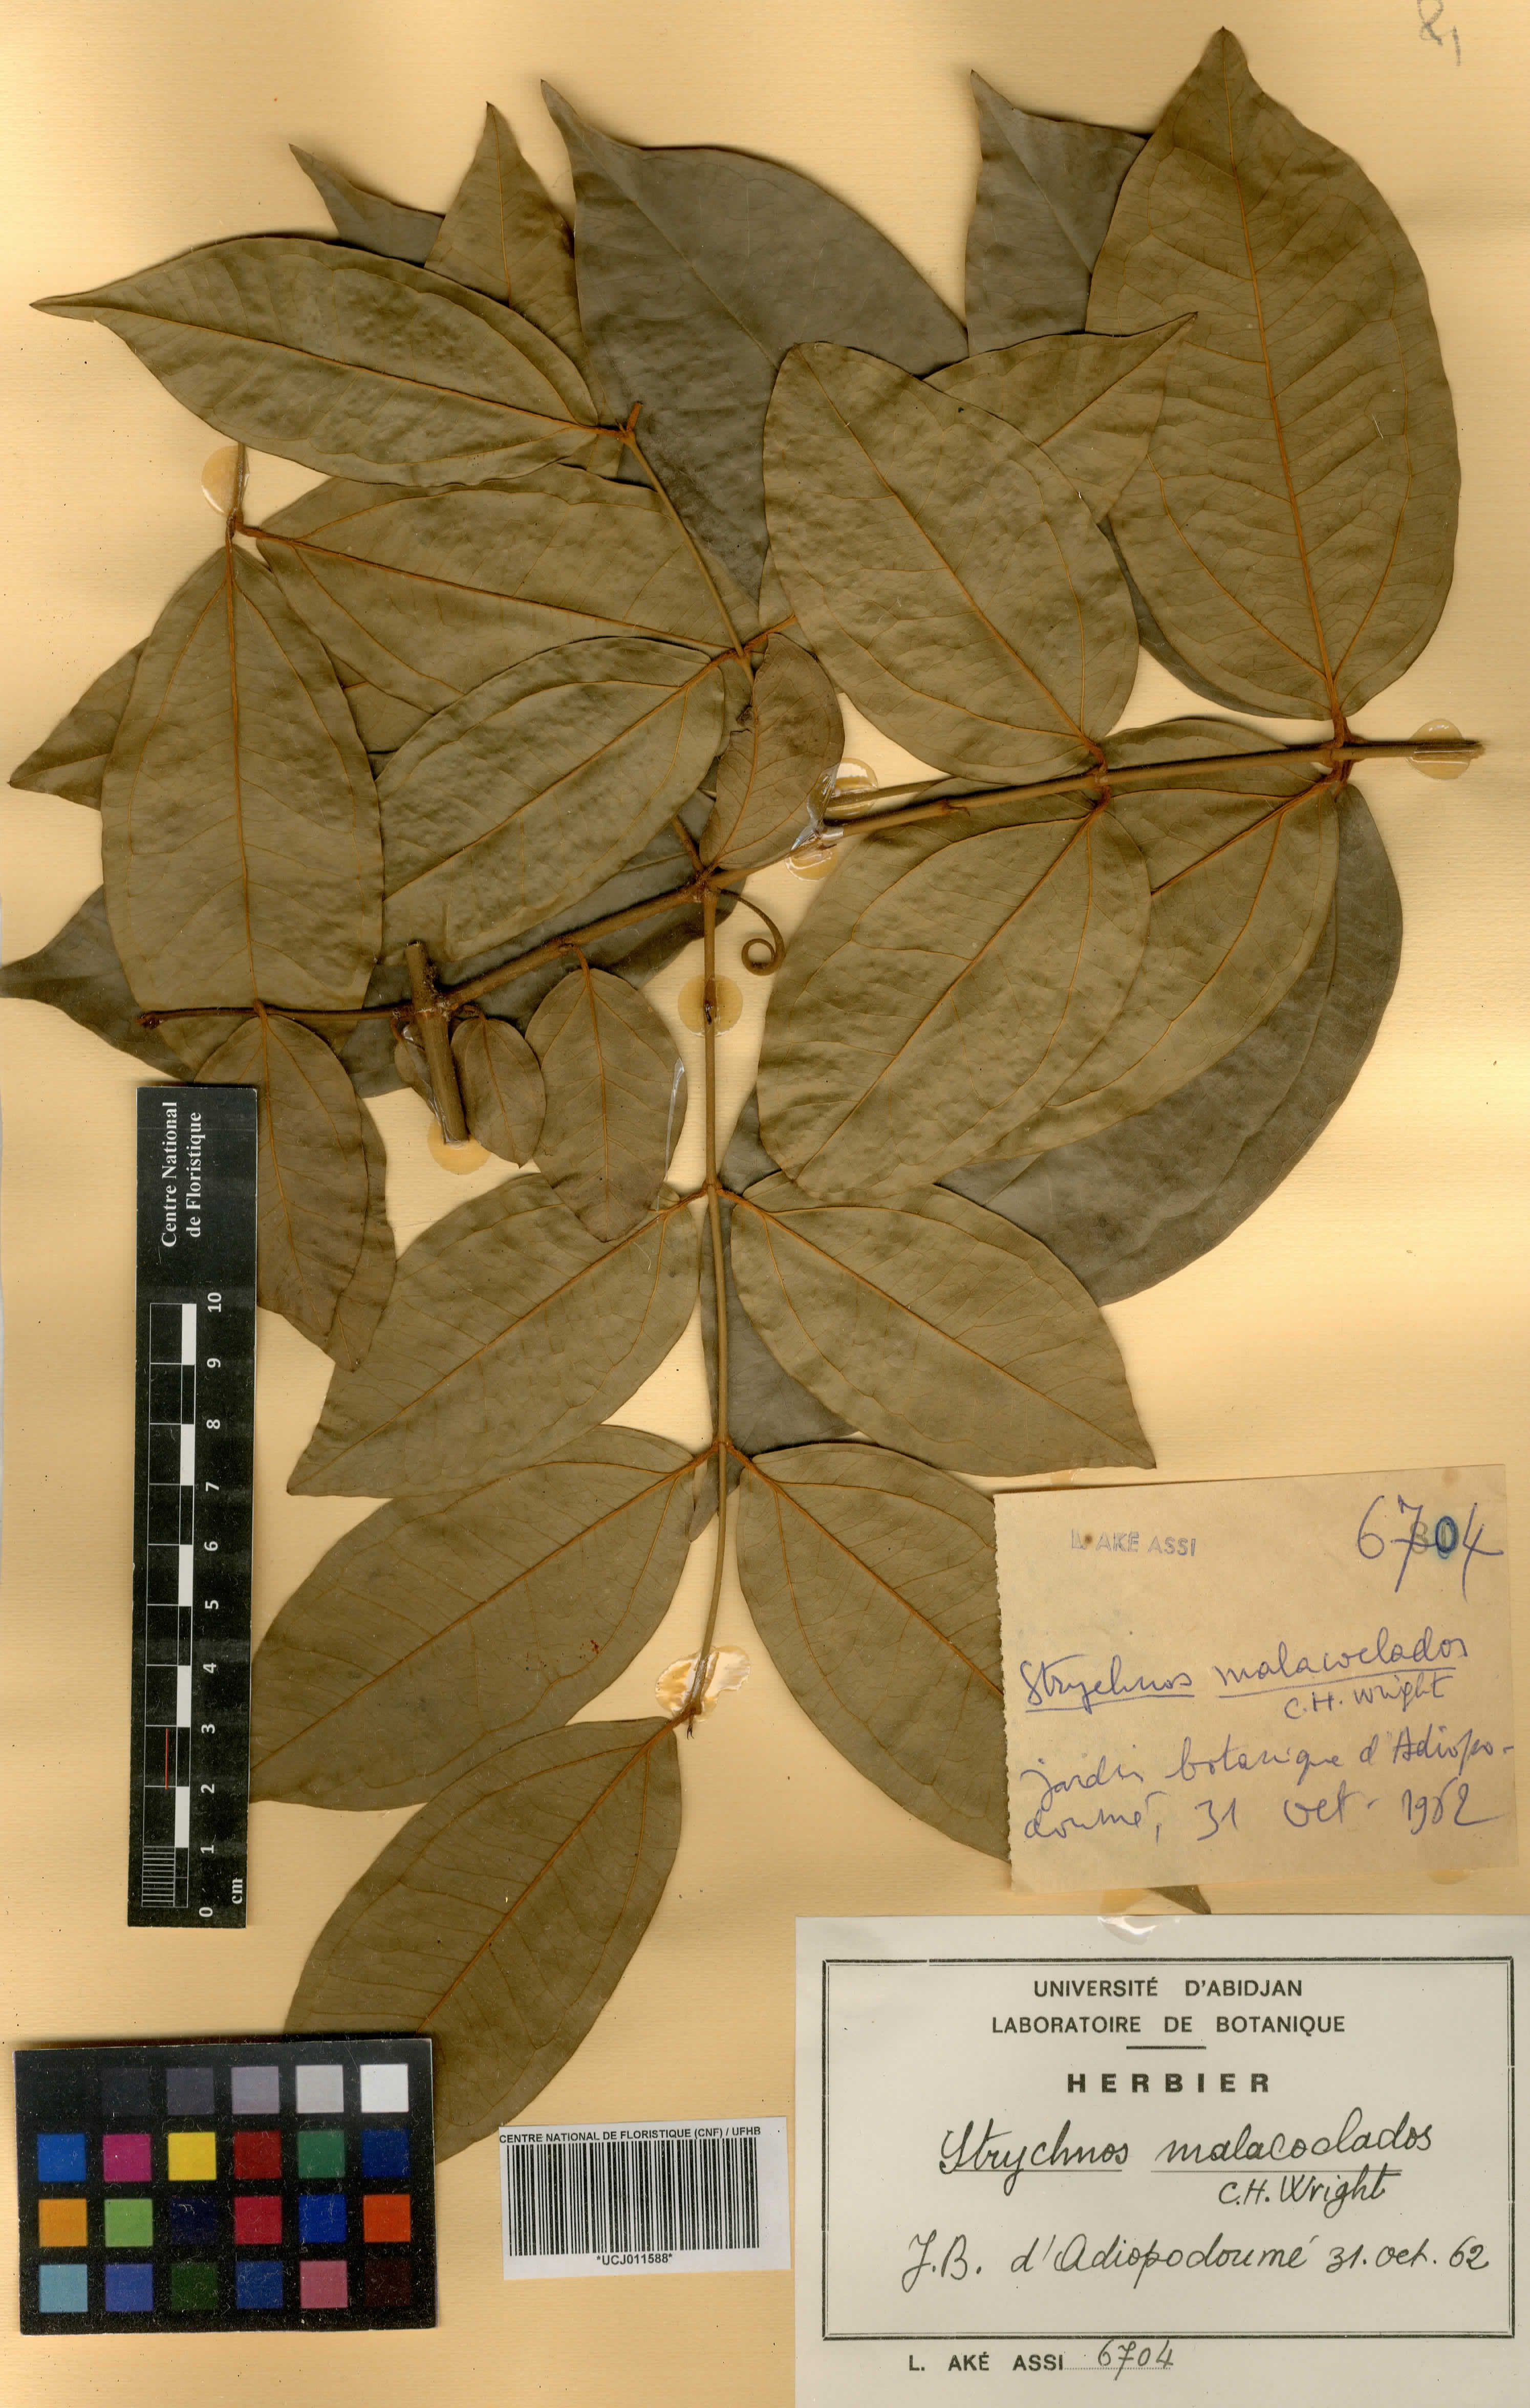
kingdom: Plantae
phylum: Tracheophyta
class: Magnoliopsida
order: Gentianales
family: Loganiaceae
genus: Strychnos
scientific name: Strychnos malacoclados
